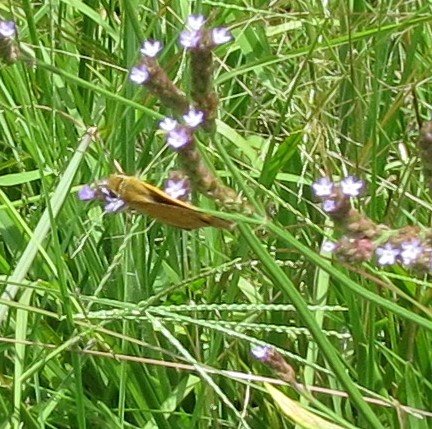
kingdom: Animalia
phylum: Arthropoda
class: Insecta
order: Lepidoptera
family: Hesperiidae
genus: Hylephila
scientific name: Hylephila phyleus
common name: Fiery Skipper
